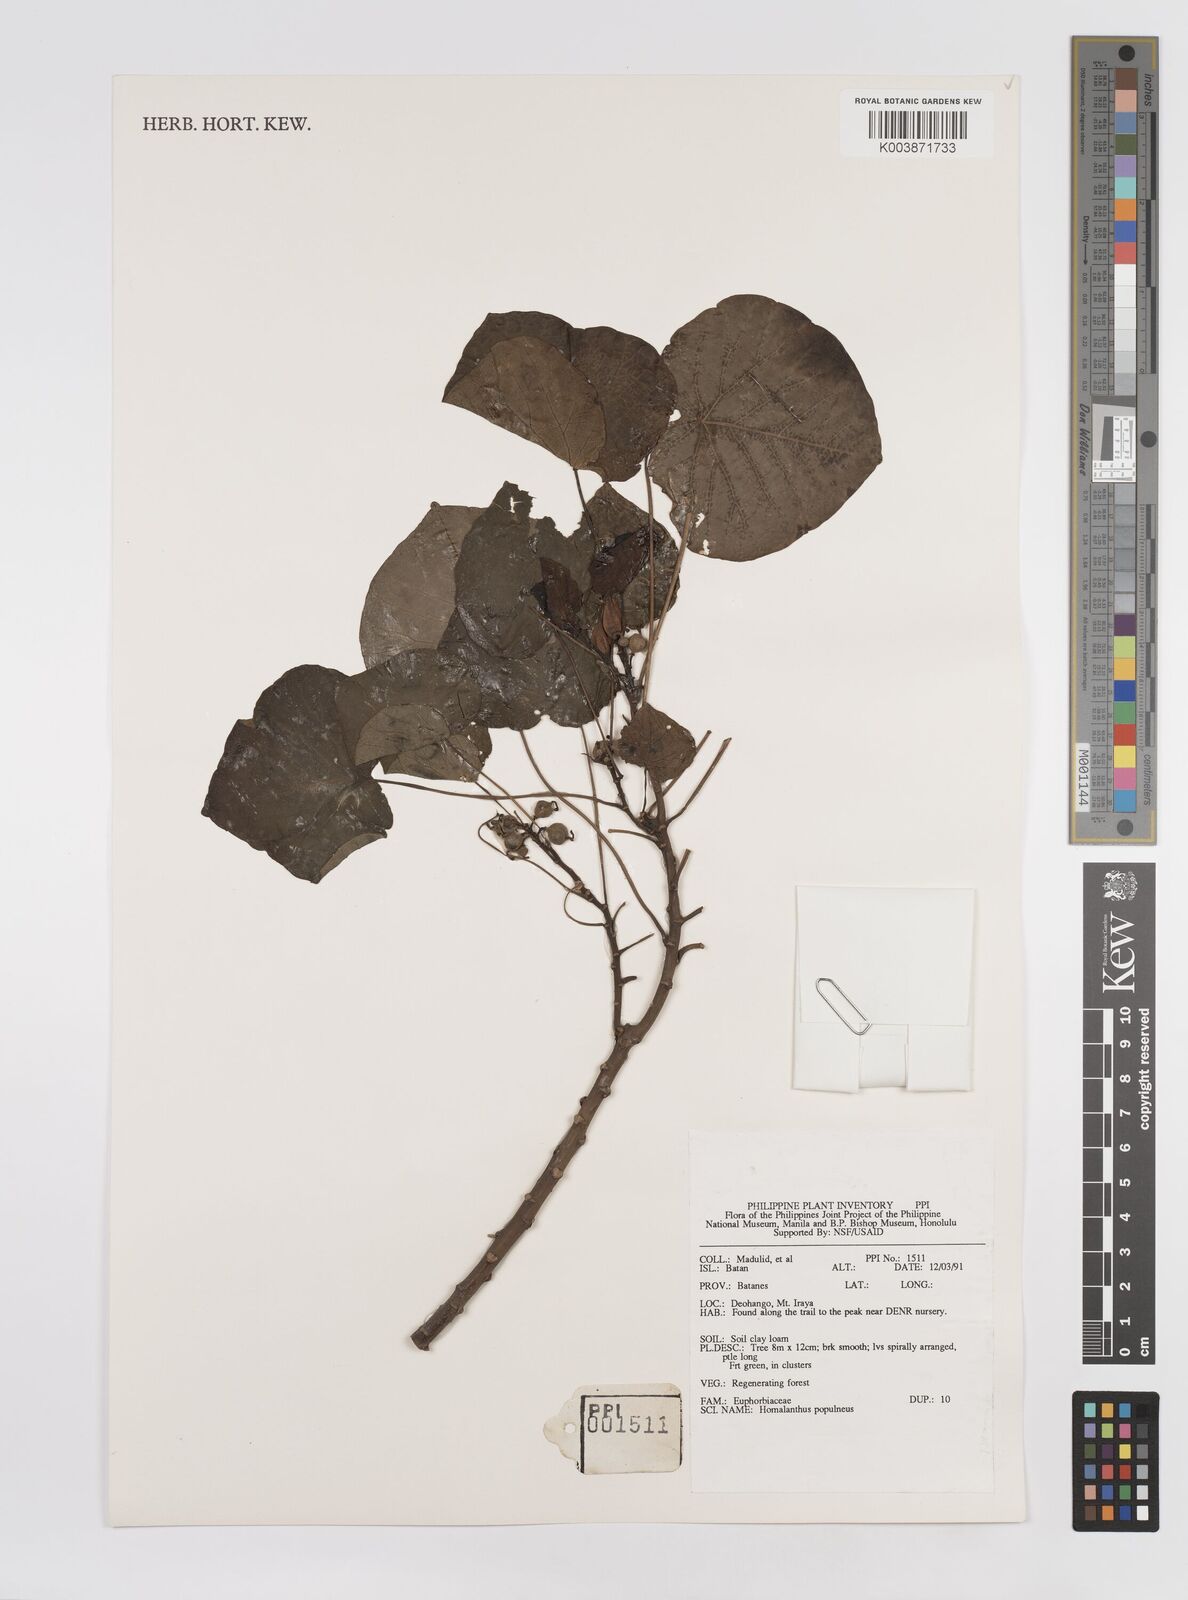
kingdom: Plantae
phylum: Tracheophyta
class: Magnoliopsida
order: Malpighiales
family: Euphorbiaceae
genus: Homalanthus
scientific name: Homalanthus
